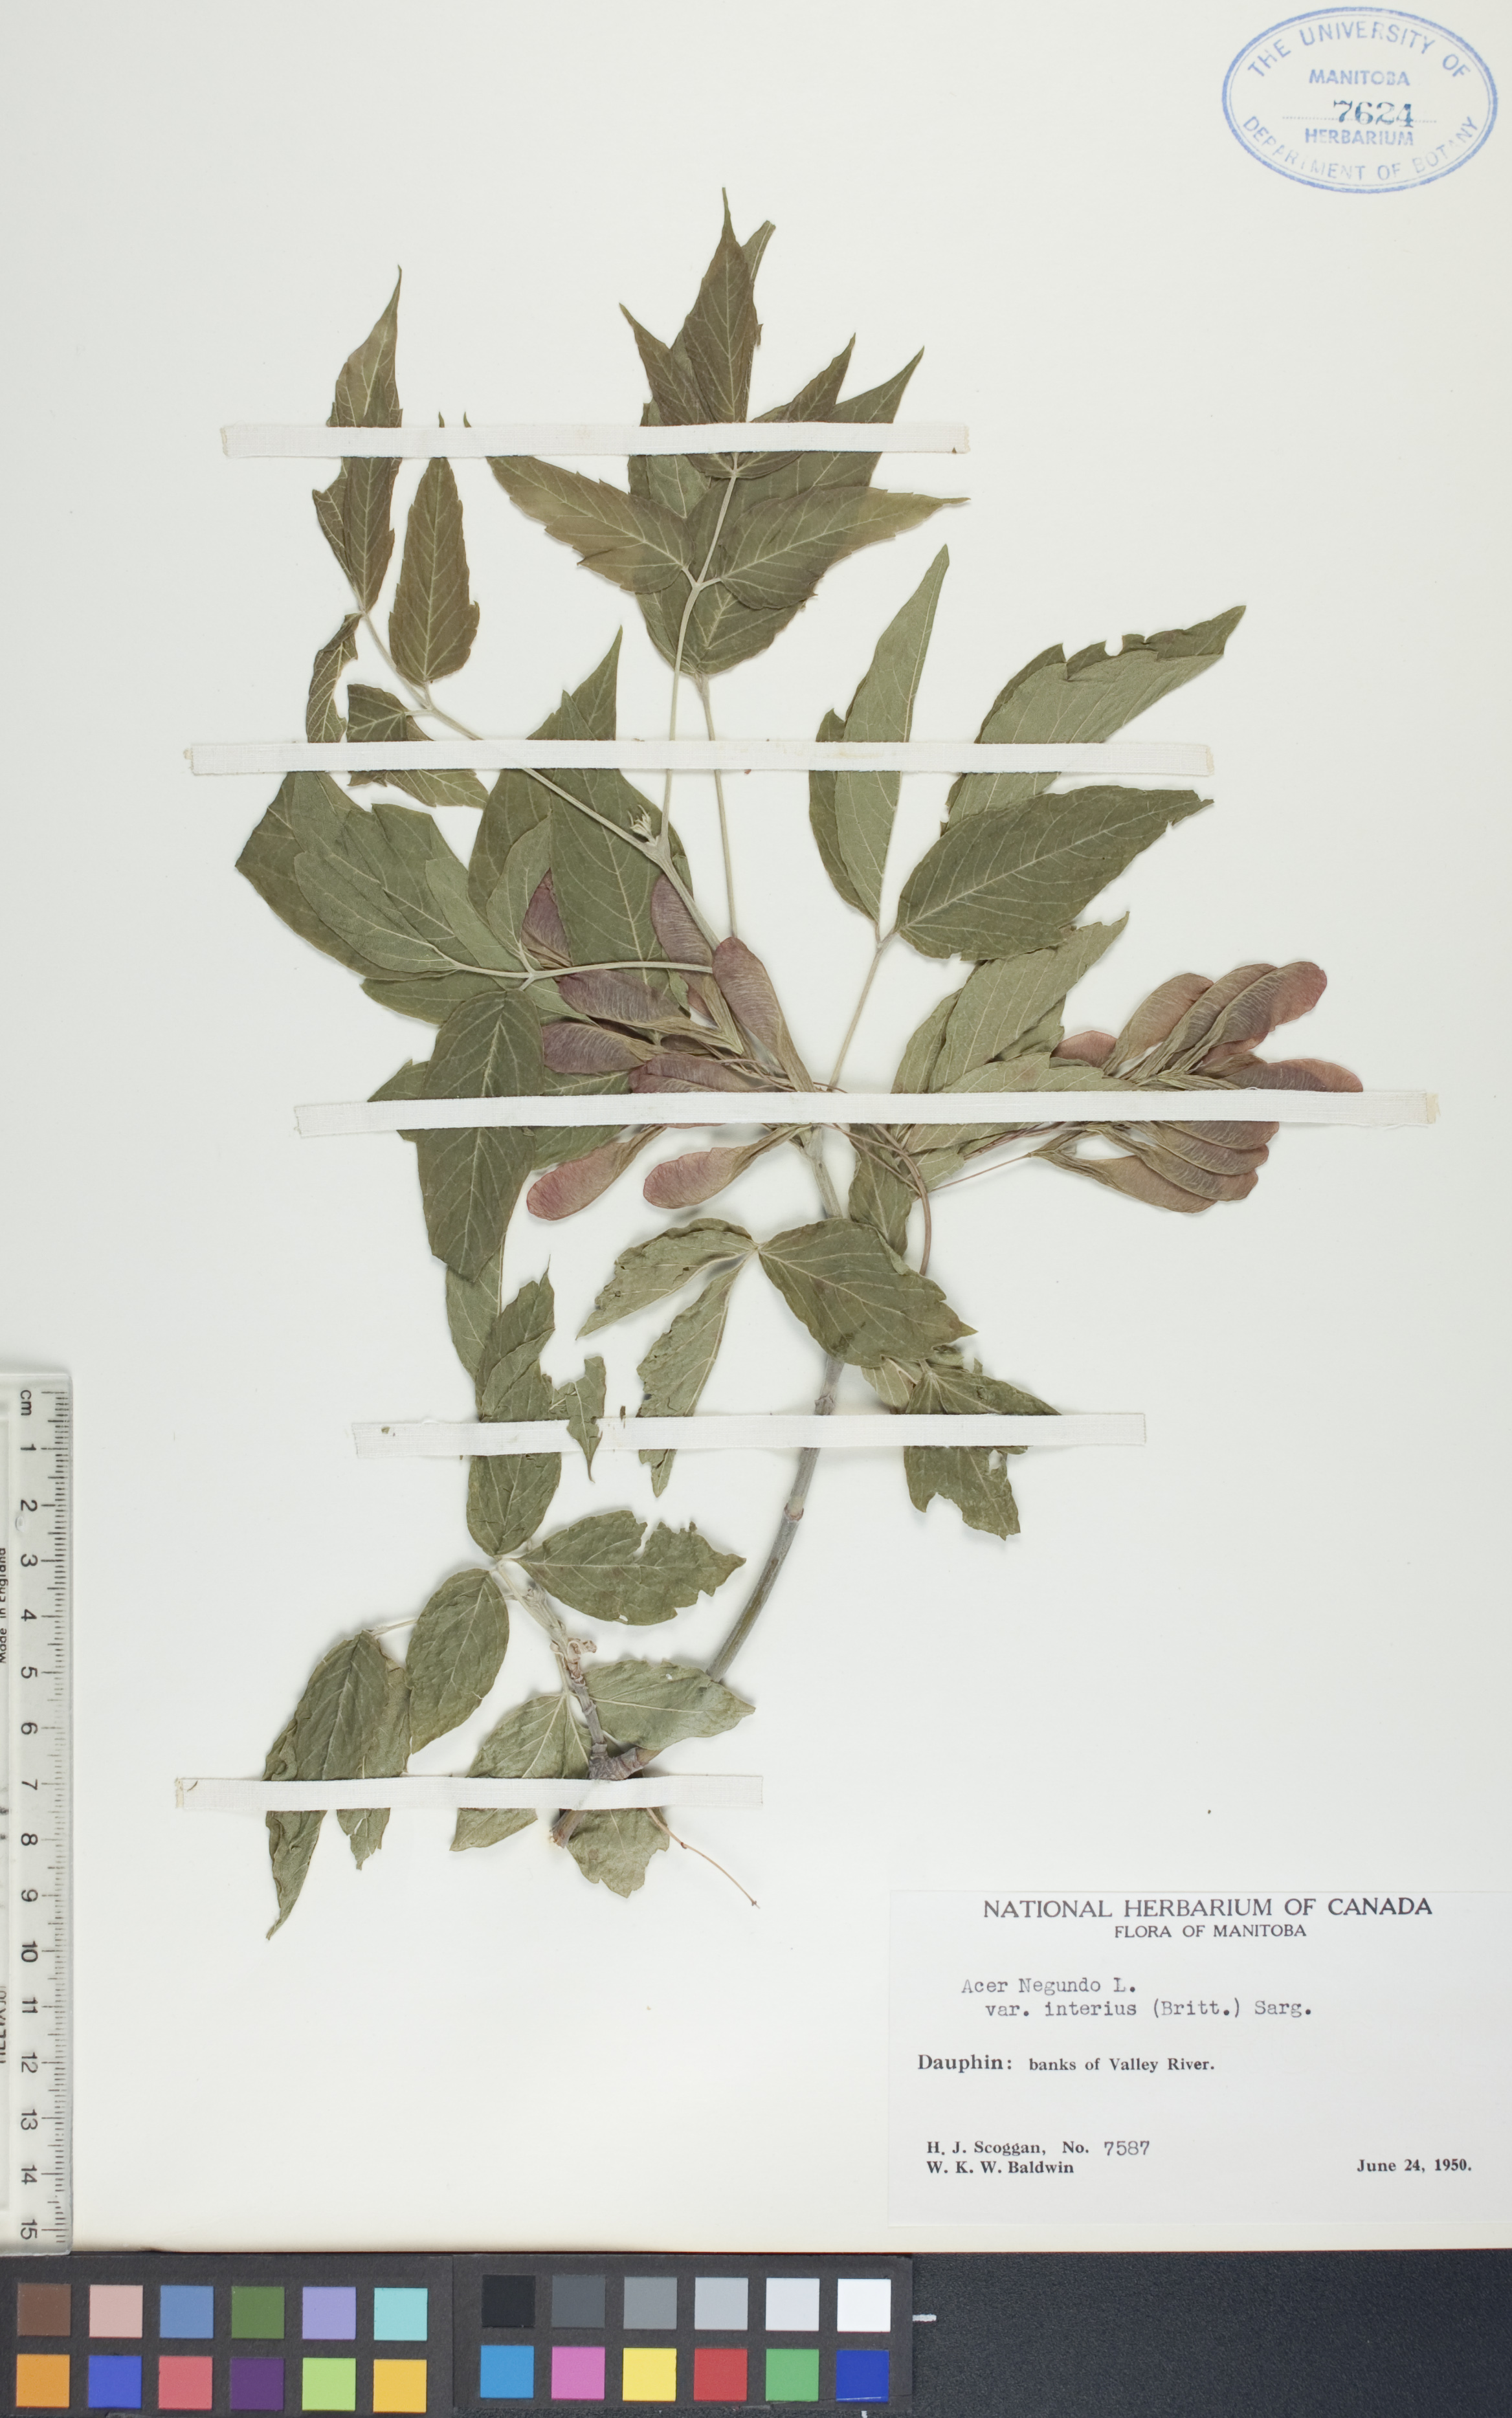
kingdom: Plantae
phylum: Tracheophyta
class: Magnoliopsida
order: Sapindales
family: Sapindaceae
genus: Acer
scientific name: Acer negundo
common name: Ashleaf maple
